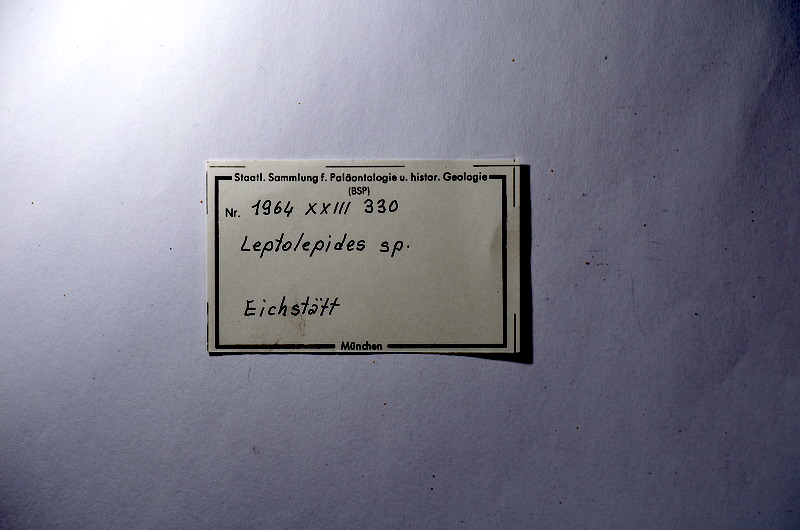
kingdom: Animalia
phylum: Chordata
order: Salmoniformes
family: Orthogonikleithridae
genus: Leptolepides
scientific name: Leptolepides
